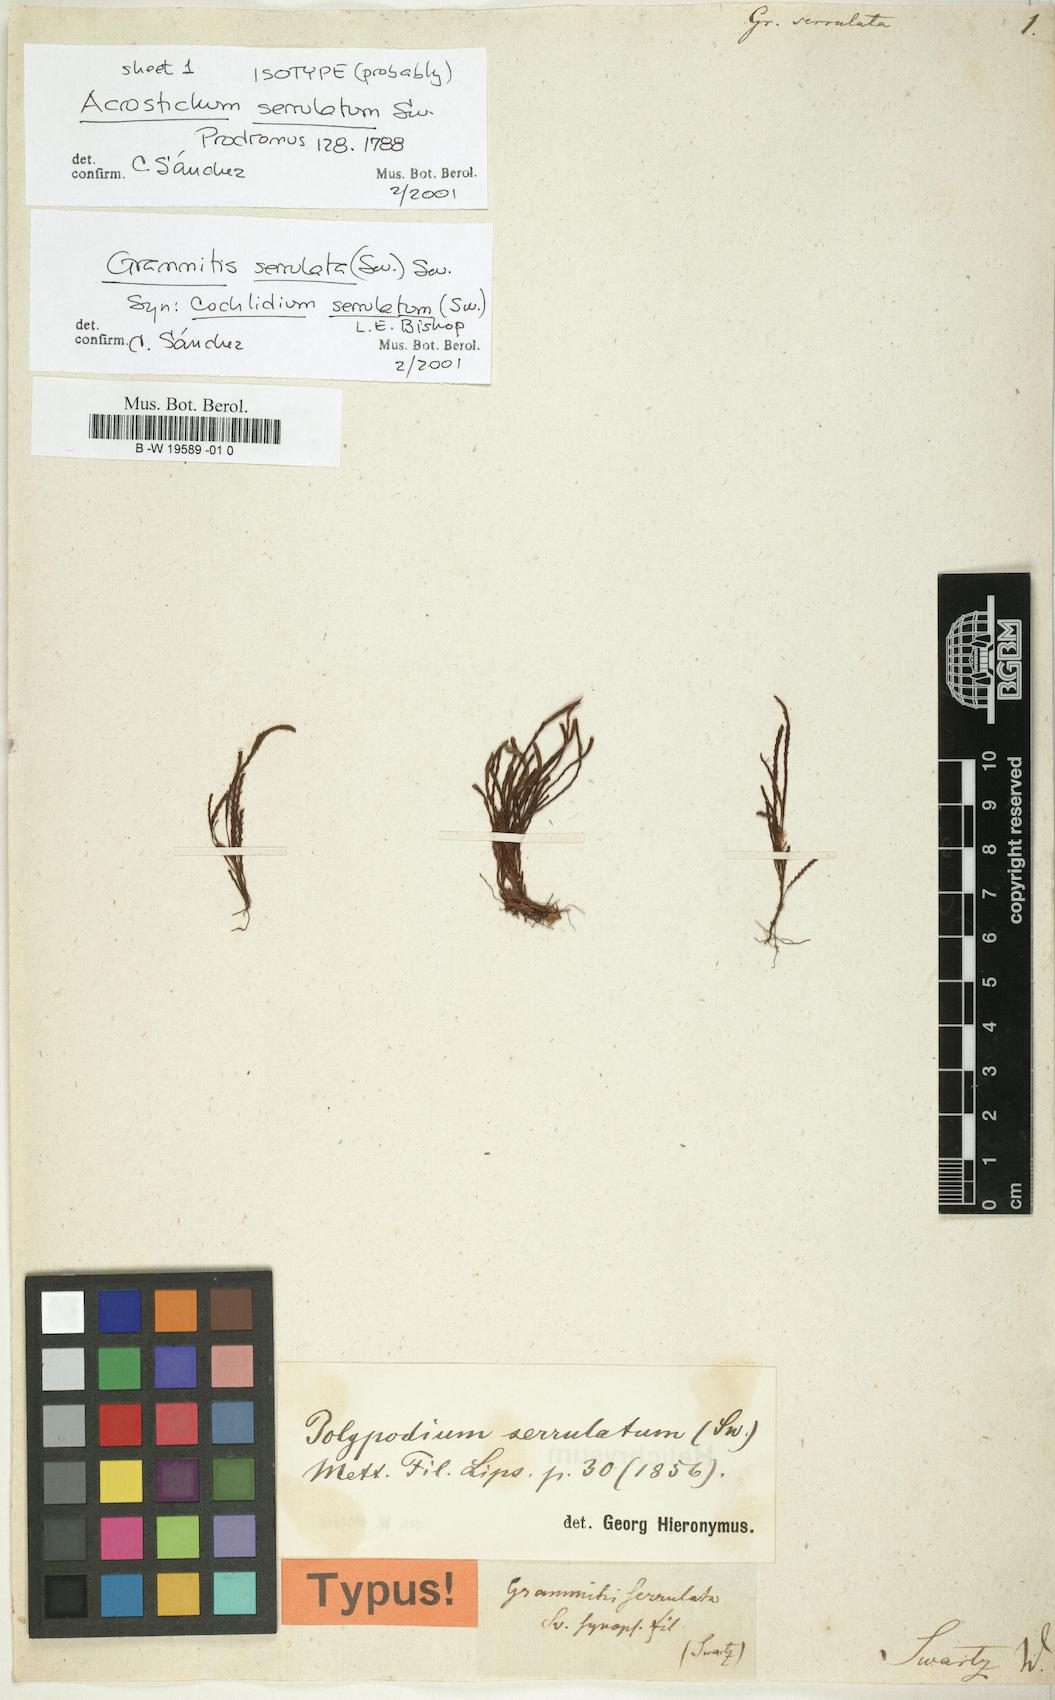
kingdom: Plantae
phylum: Tracheophyta
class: Polypodiopsida
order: Polypodiales
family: Polypodiaceae
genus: Cochlidium
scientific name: Cochlidium serrulatum
